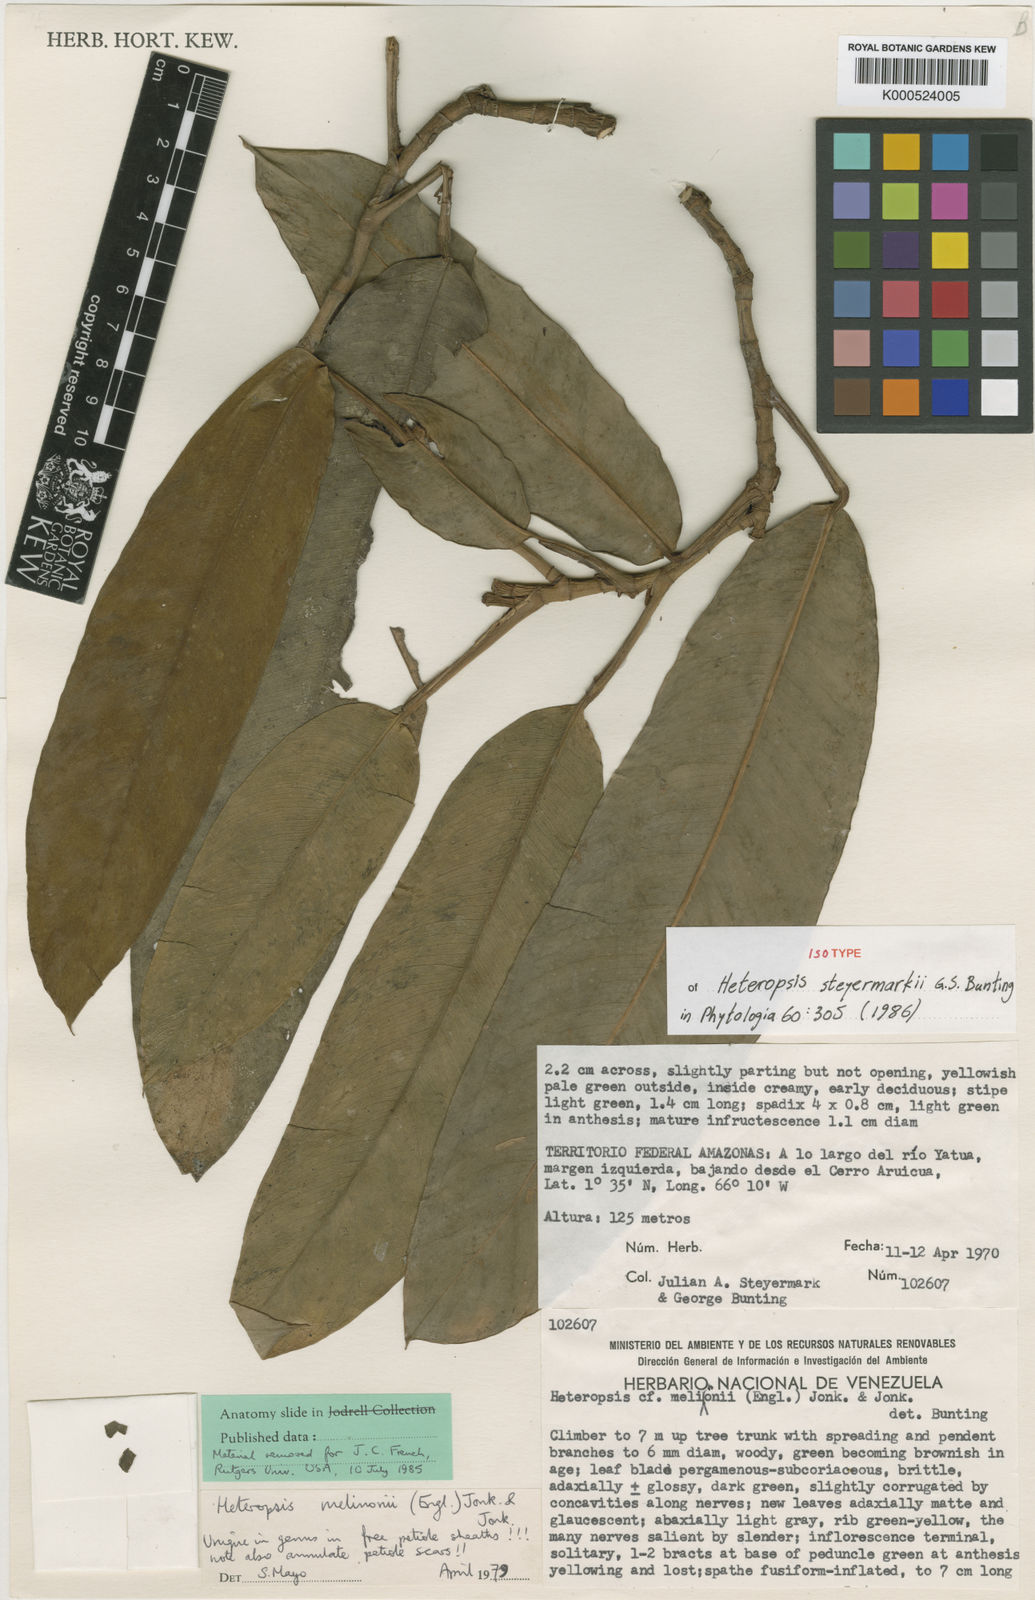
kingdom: Plantae
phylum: Tracheophyta
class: Liliopsida
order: Alismatales
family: Araceae
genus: Heteropsis
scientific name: Heteropsis steyermarkii
